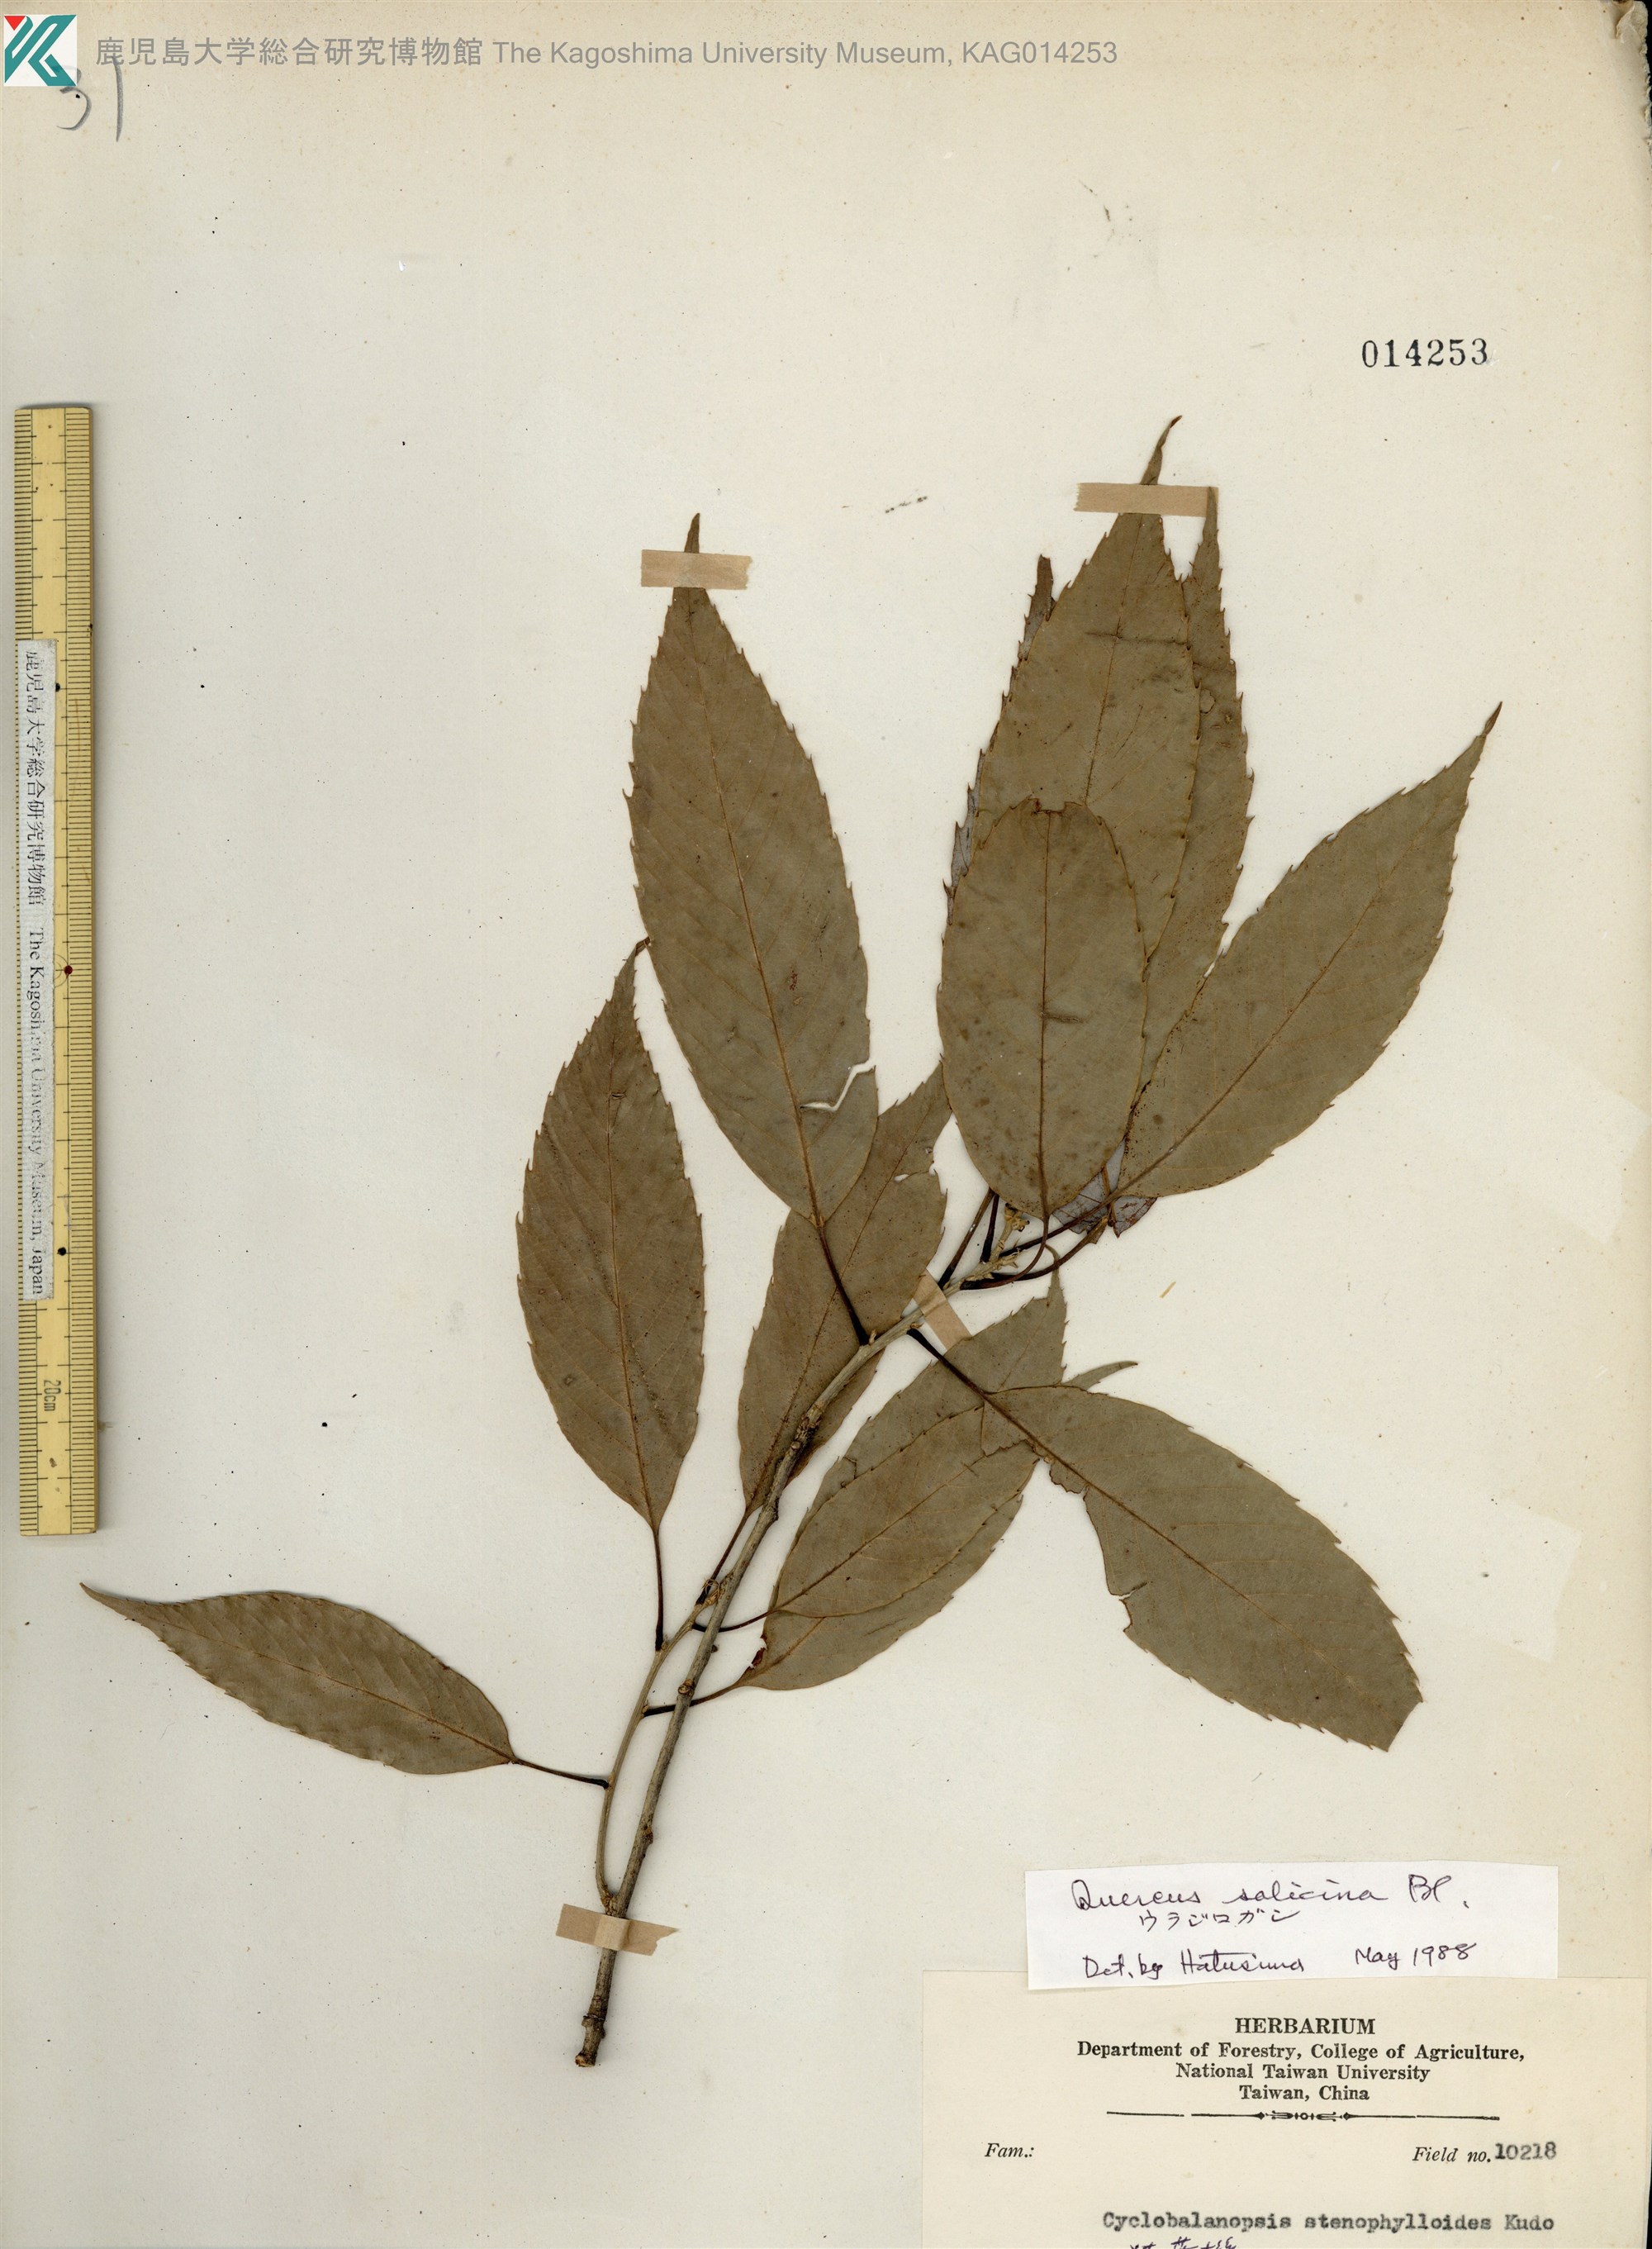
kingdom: Plantae
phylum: Tracheophyta
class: Magnoliopsida
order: Fagales
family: Fagaceae
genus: Quercus
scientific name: Quercus salicina
